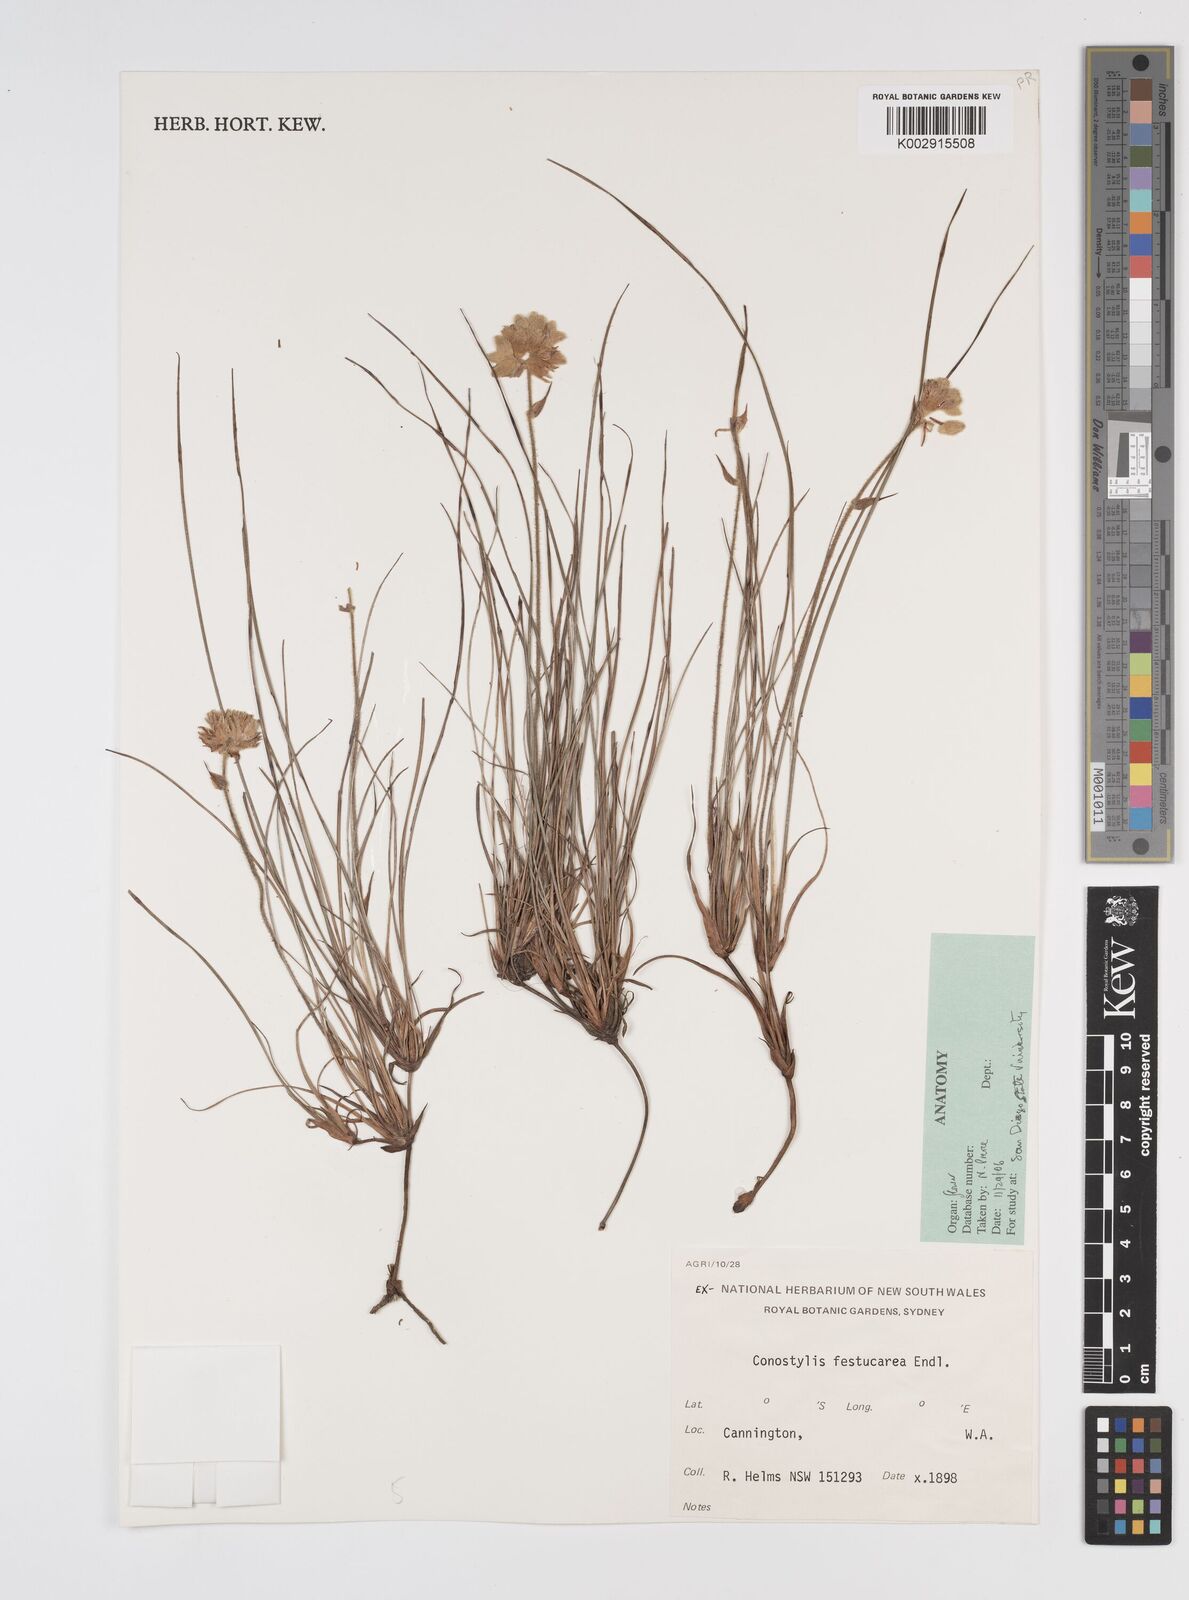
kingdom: Plantae
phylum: Tracheophyta
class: Liliopsida
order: Commelinales
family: Haemodoraceae
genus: Conostylis
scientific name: Conostylis festucacea
